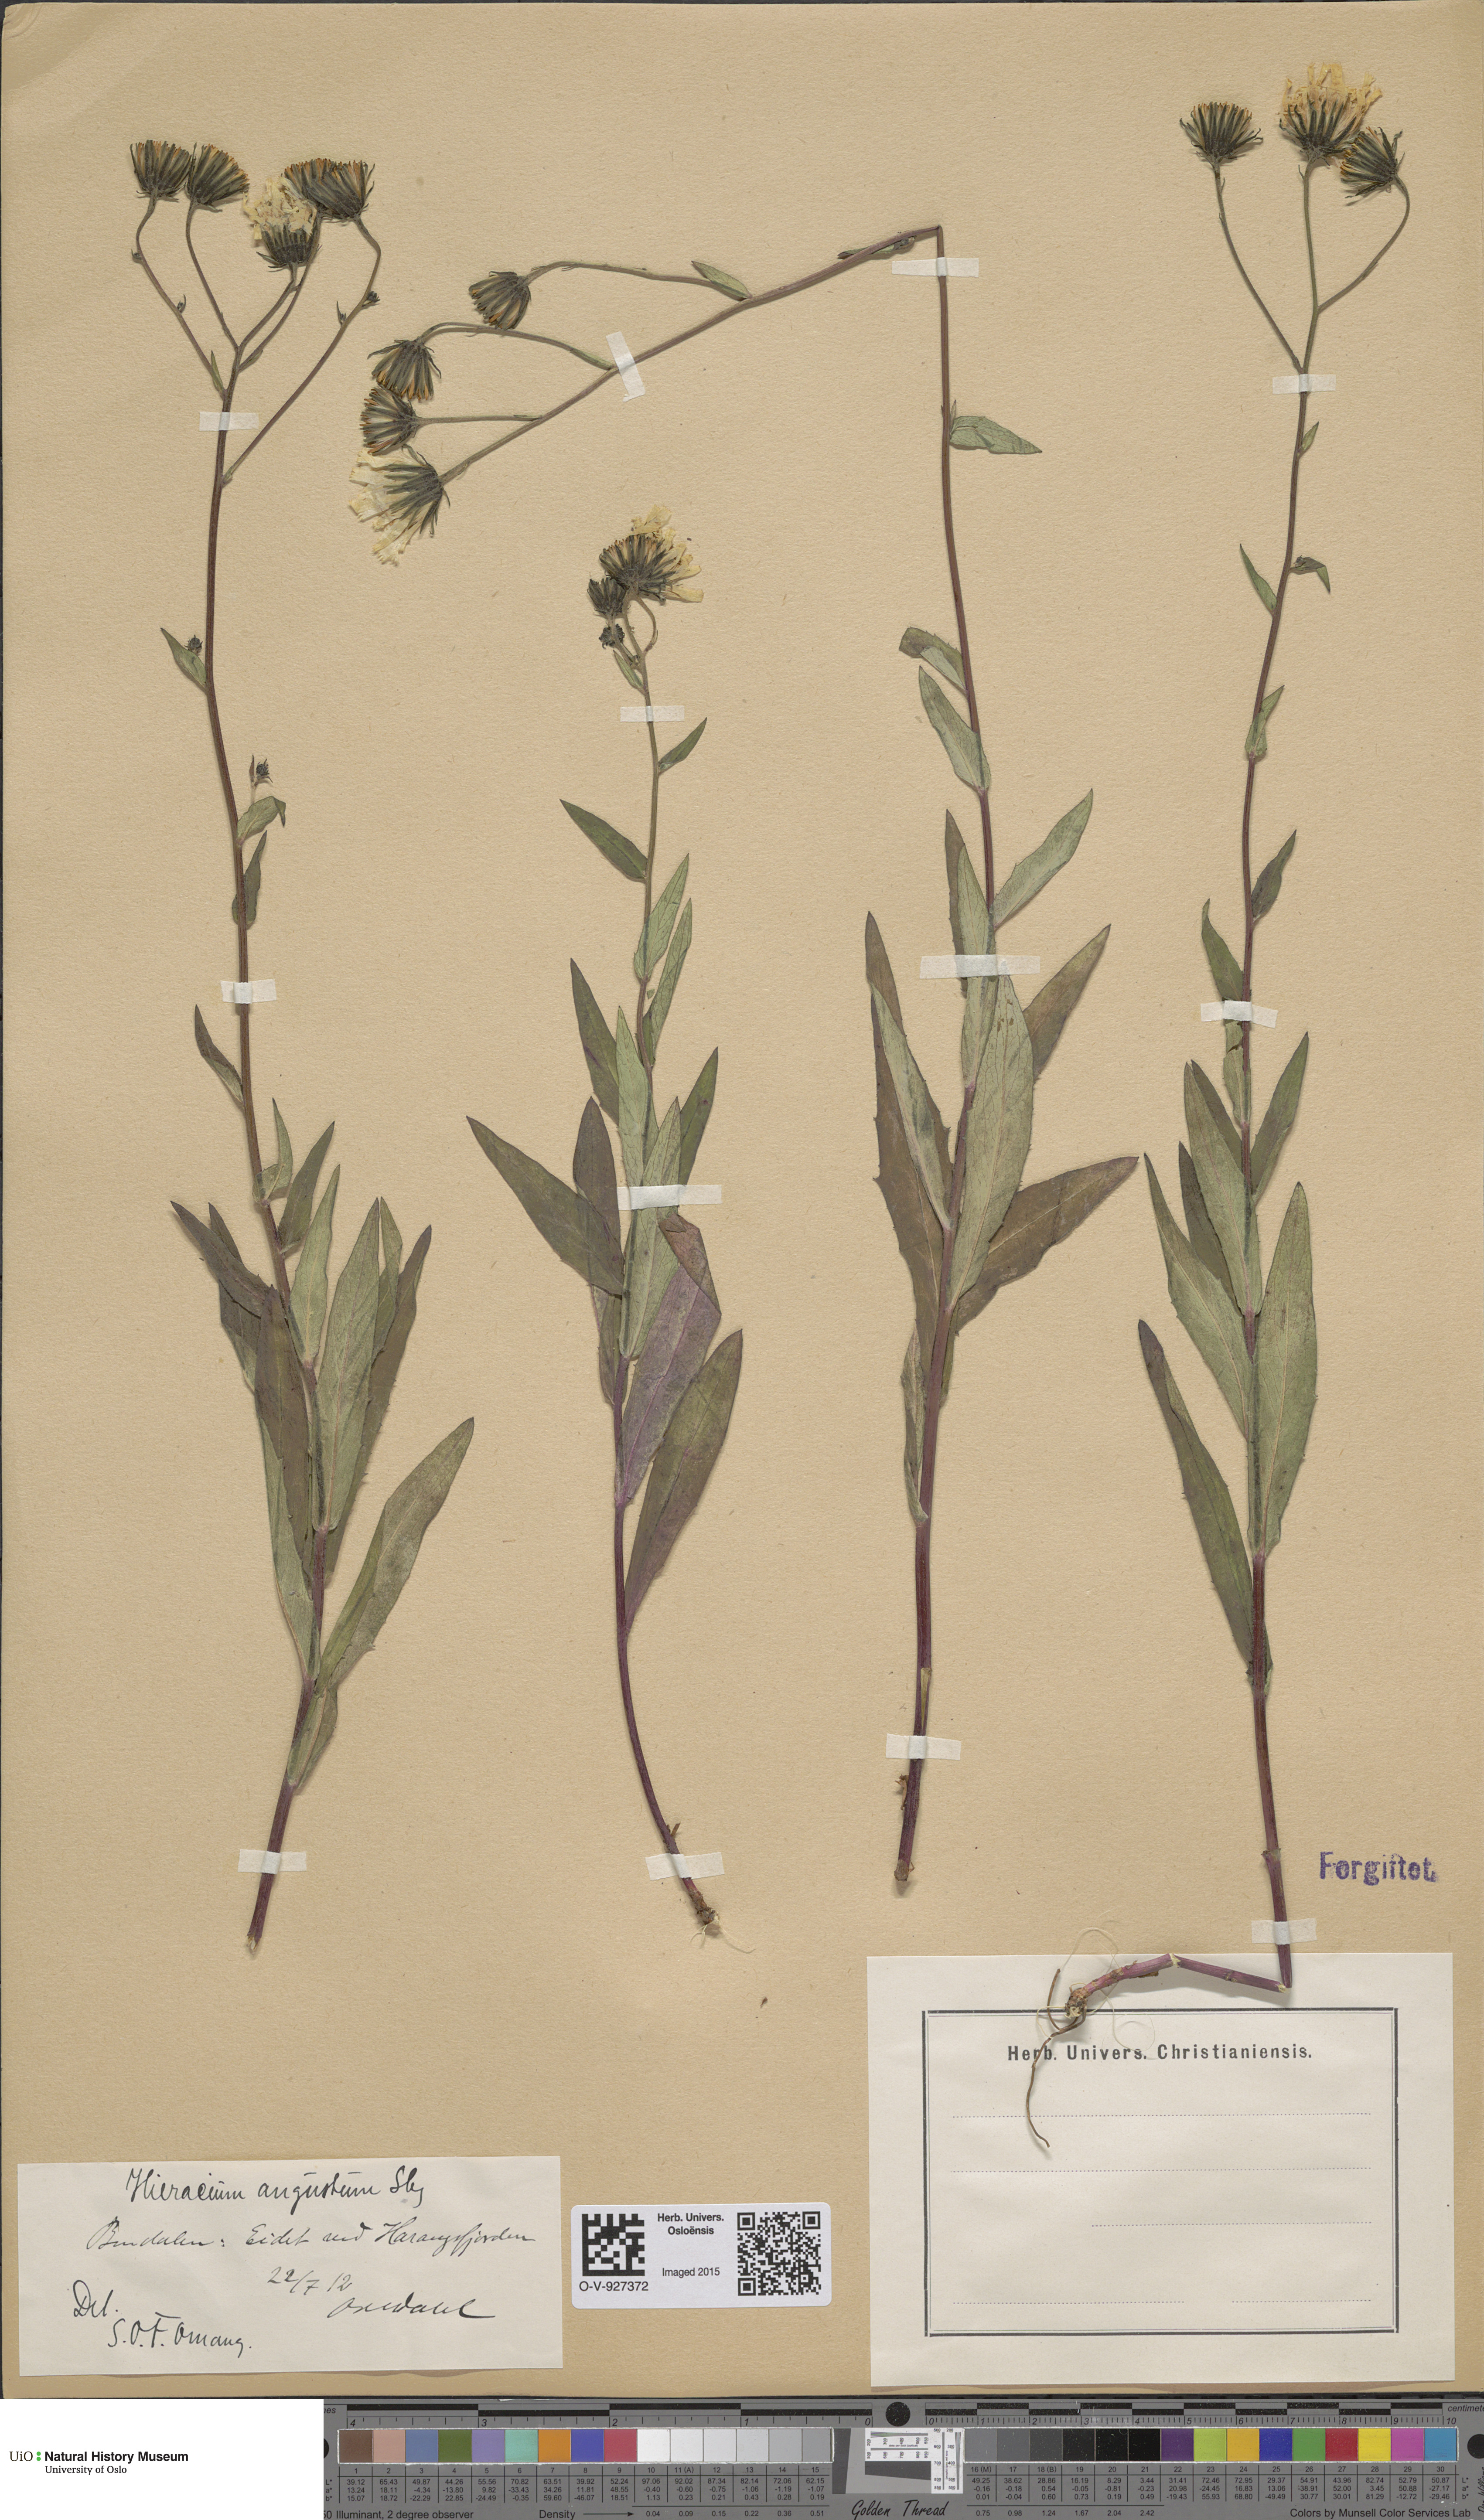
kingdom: Plantae
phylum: Tracheophyta
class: Magnoliopsida
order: Asterales
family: Asteraceae
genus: Hieracium
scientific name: Hieracium angustum
